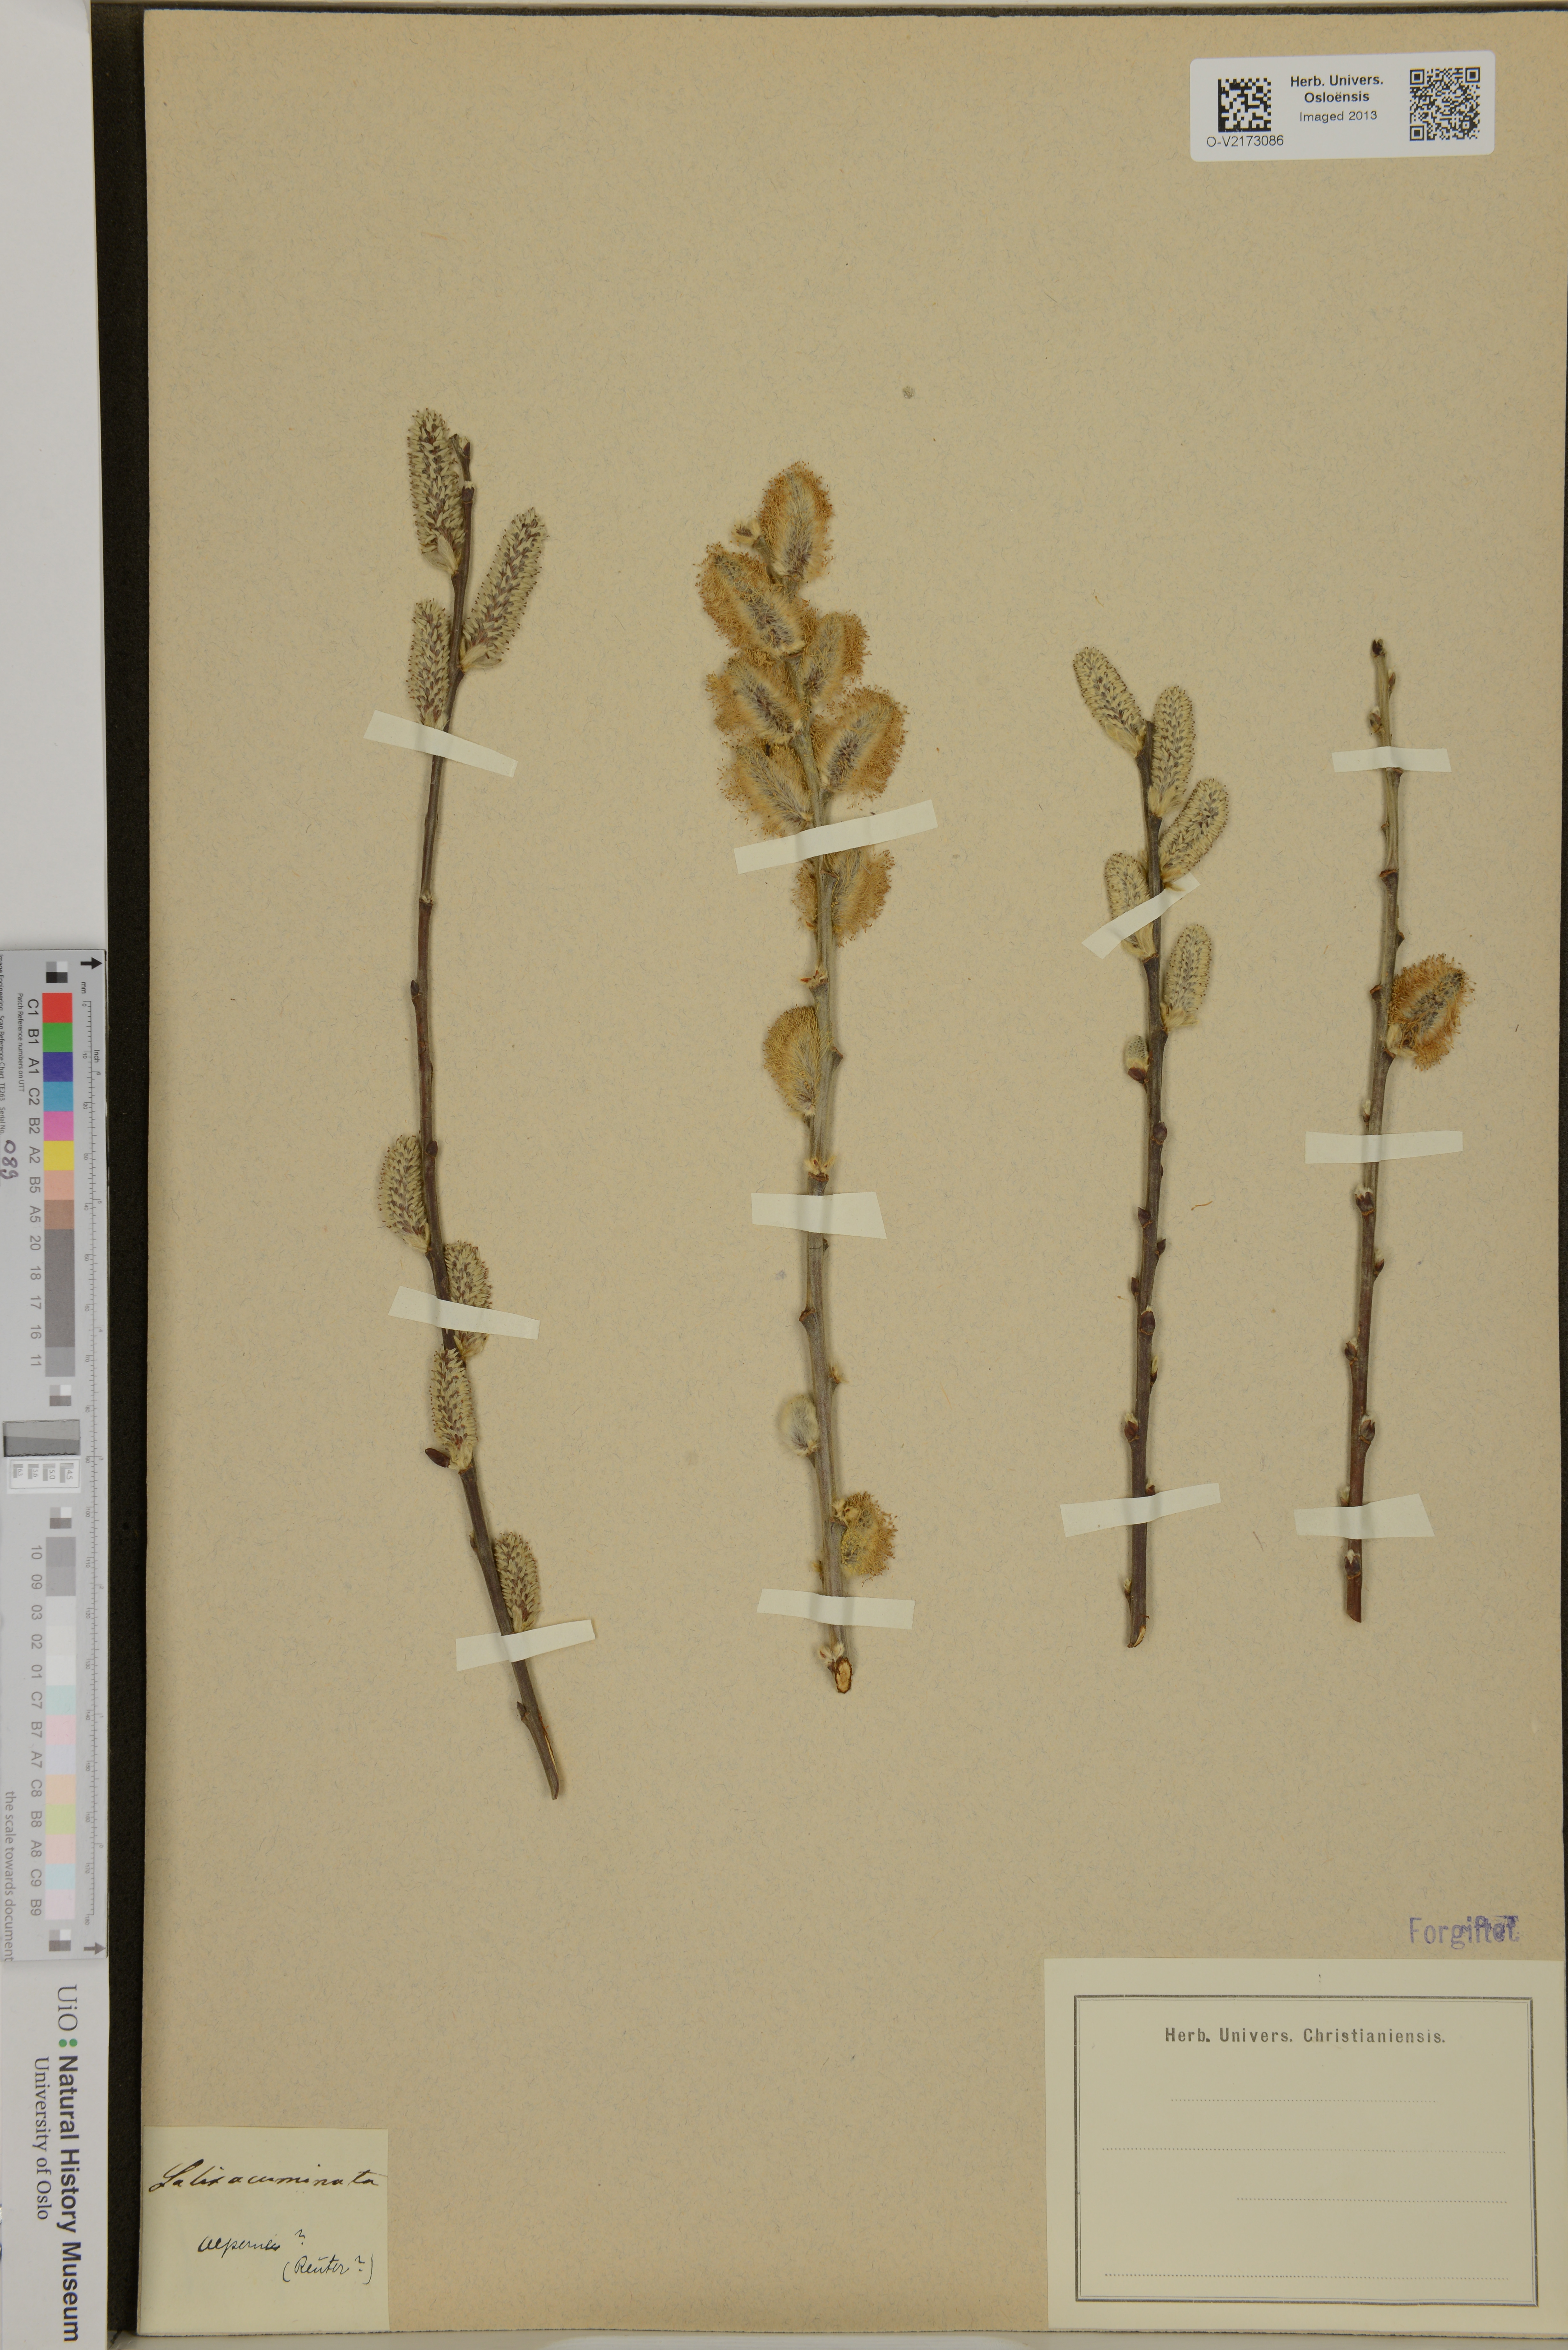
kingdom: Plantae
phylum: Tracheophyta
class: Magnoliopsida
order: Malpighiales
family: Salicaceae
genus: Salix
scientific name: Salix
